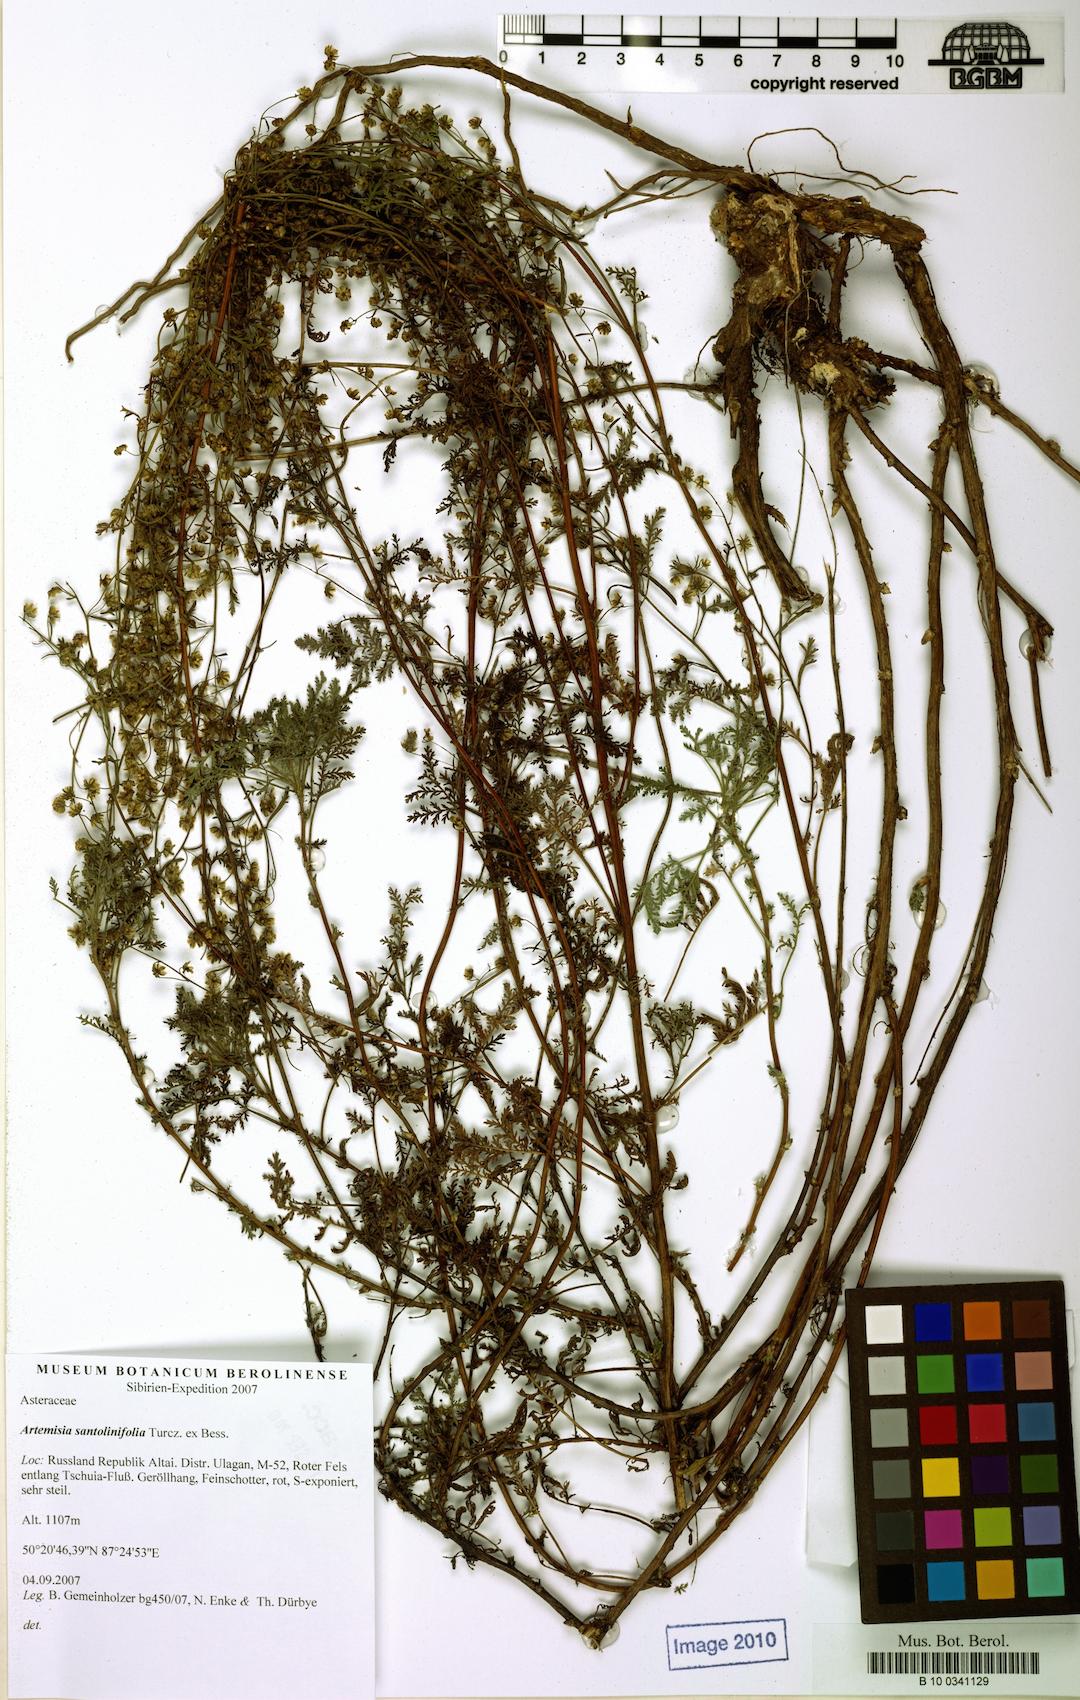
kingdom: Plantae
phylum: Tracheophyta
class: Magnoliopsida
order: Asterales
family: Asteraceae
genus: Artemisia
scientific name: Artemisia gmelinii
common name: Gmelin's wormwood
